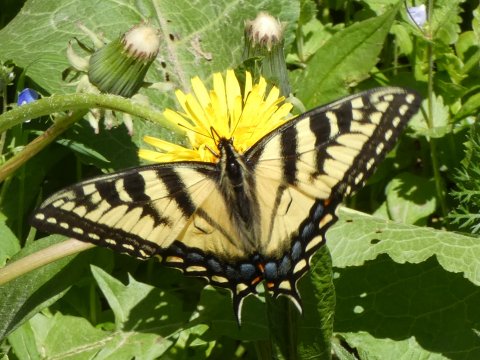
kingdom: Animalia
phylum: Arthropoda
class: Insecta
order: Lepidoptera
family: Papilionidae
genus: Pterourus
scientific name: Pterourus glaucus
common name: Eastern Tiger Swallowtail
